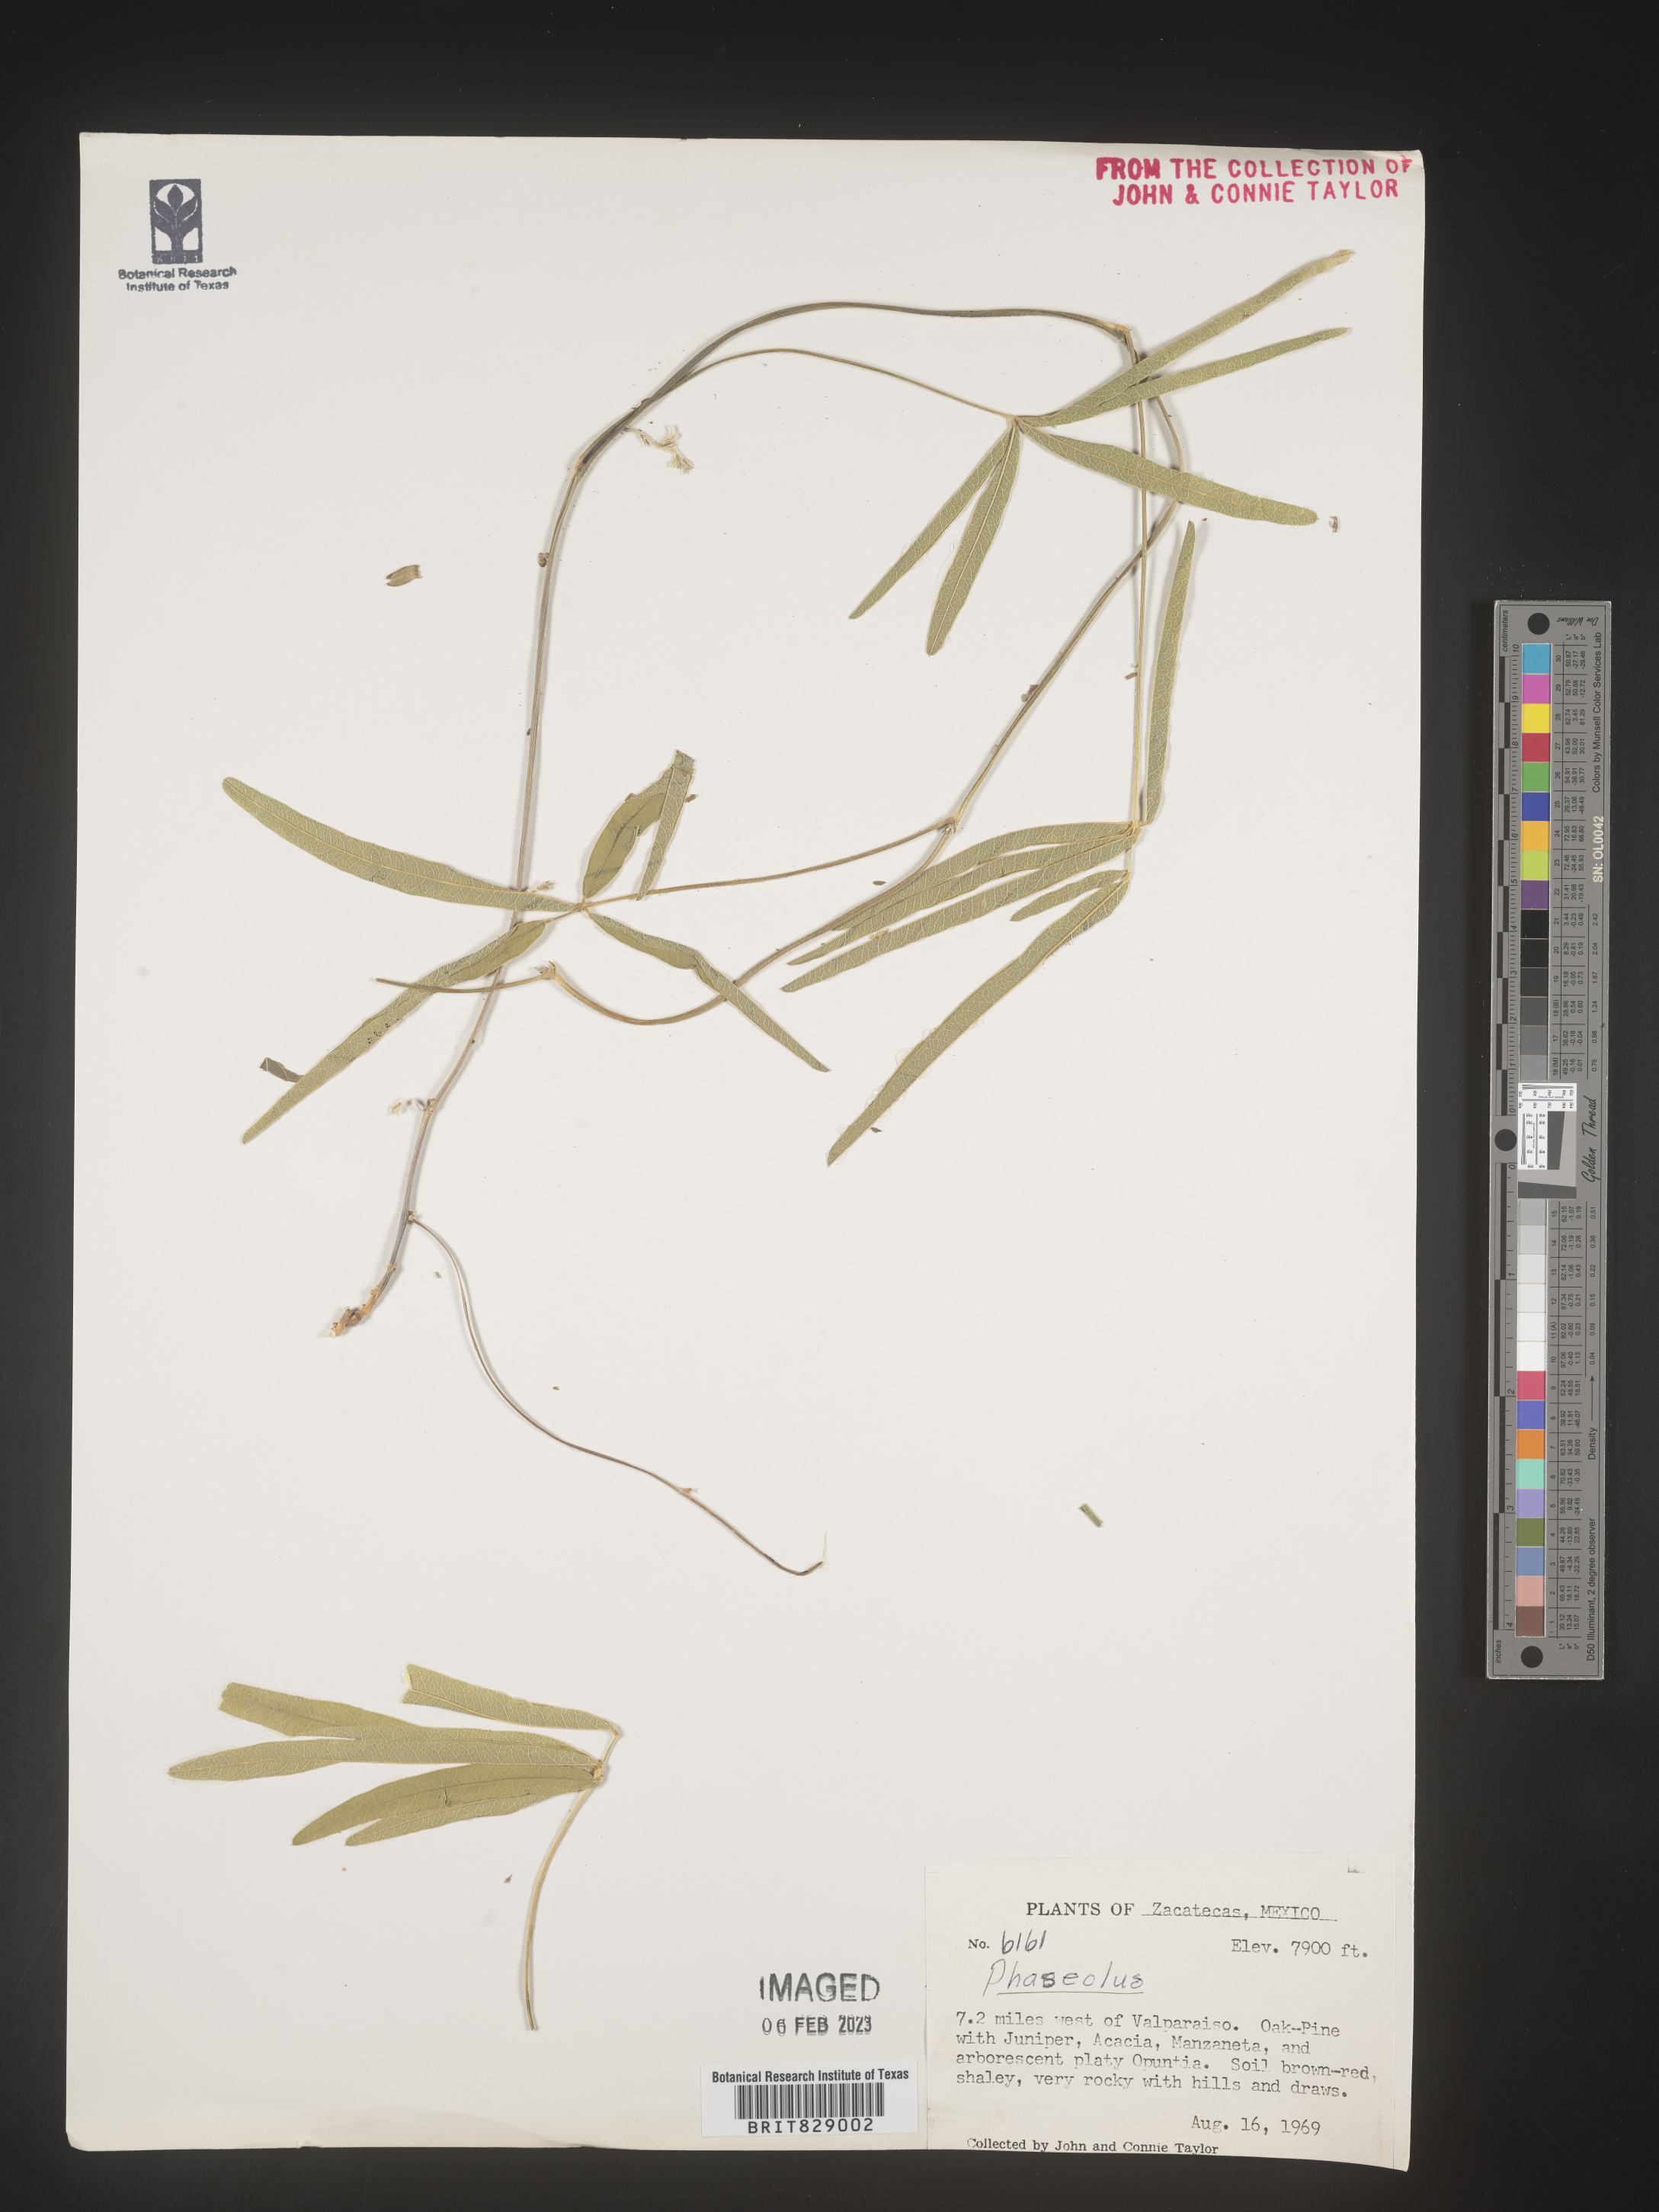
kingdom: Plantae
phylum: Tracheophyta
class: Magnoliopsida
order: Fabales
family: Fabaceae
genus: Phaseolus
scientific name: Phaseolus
